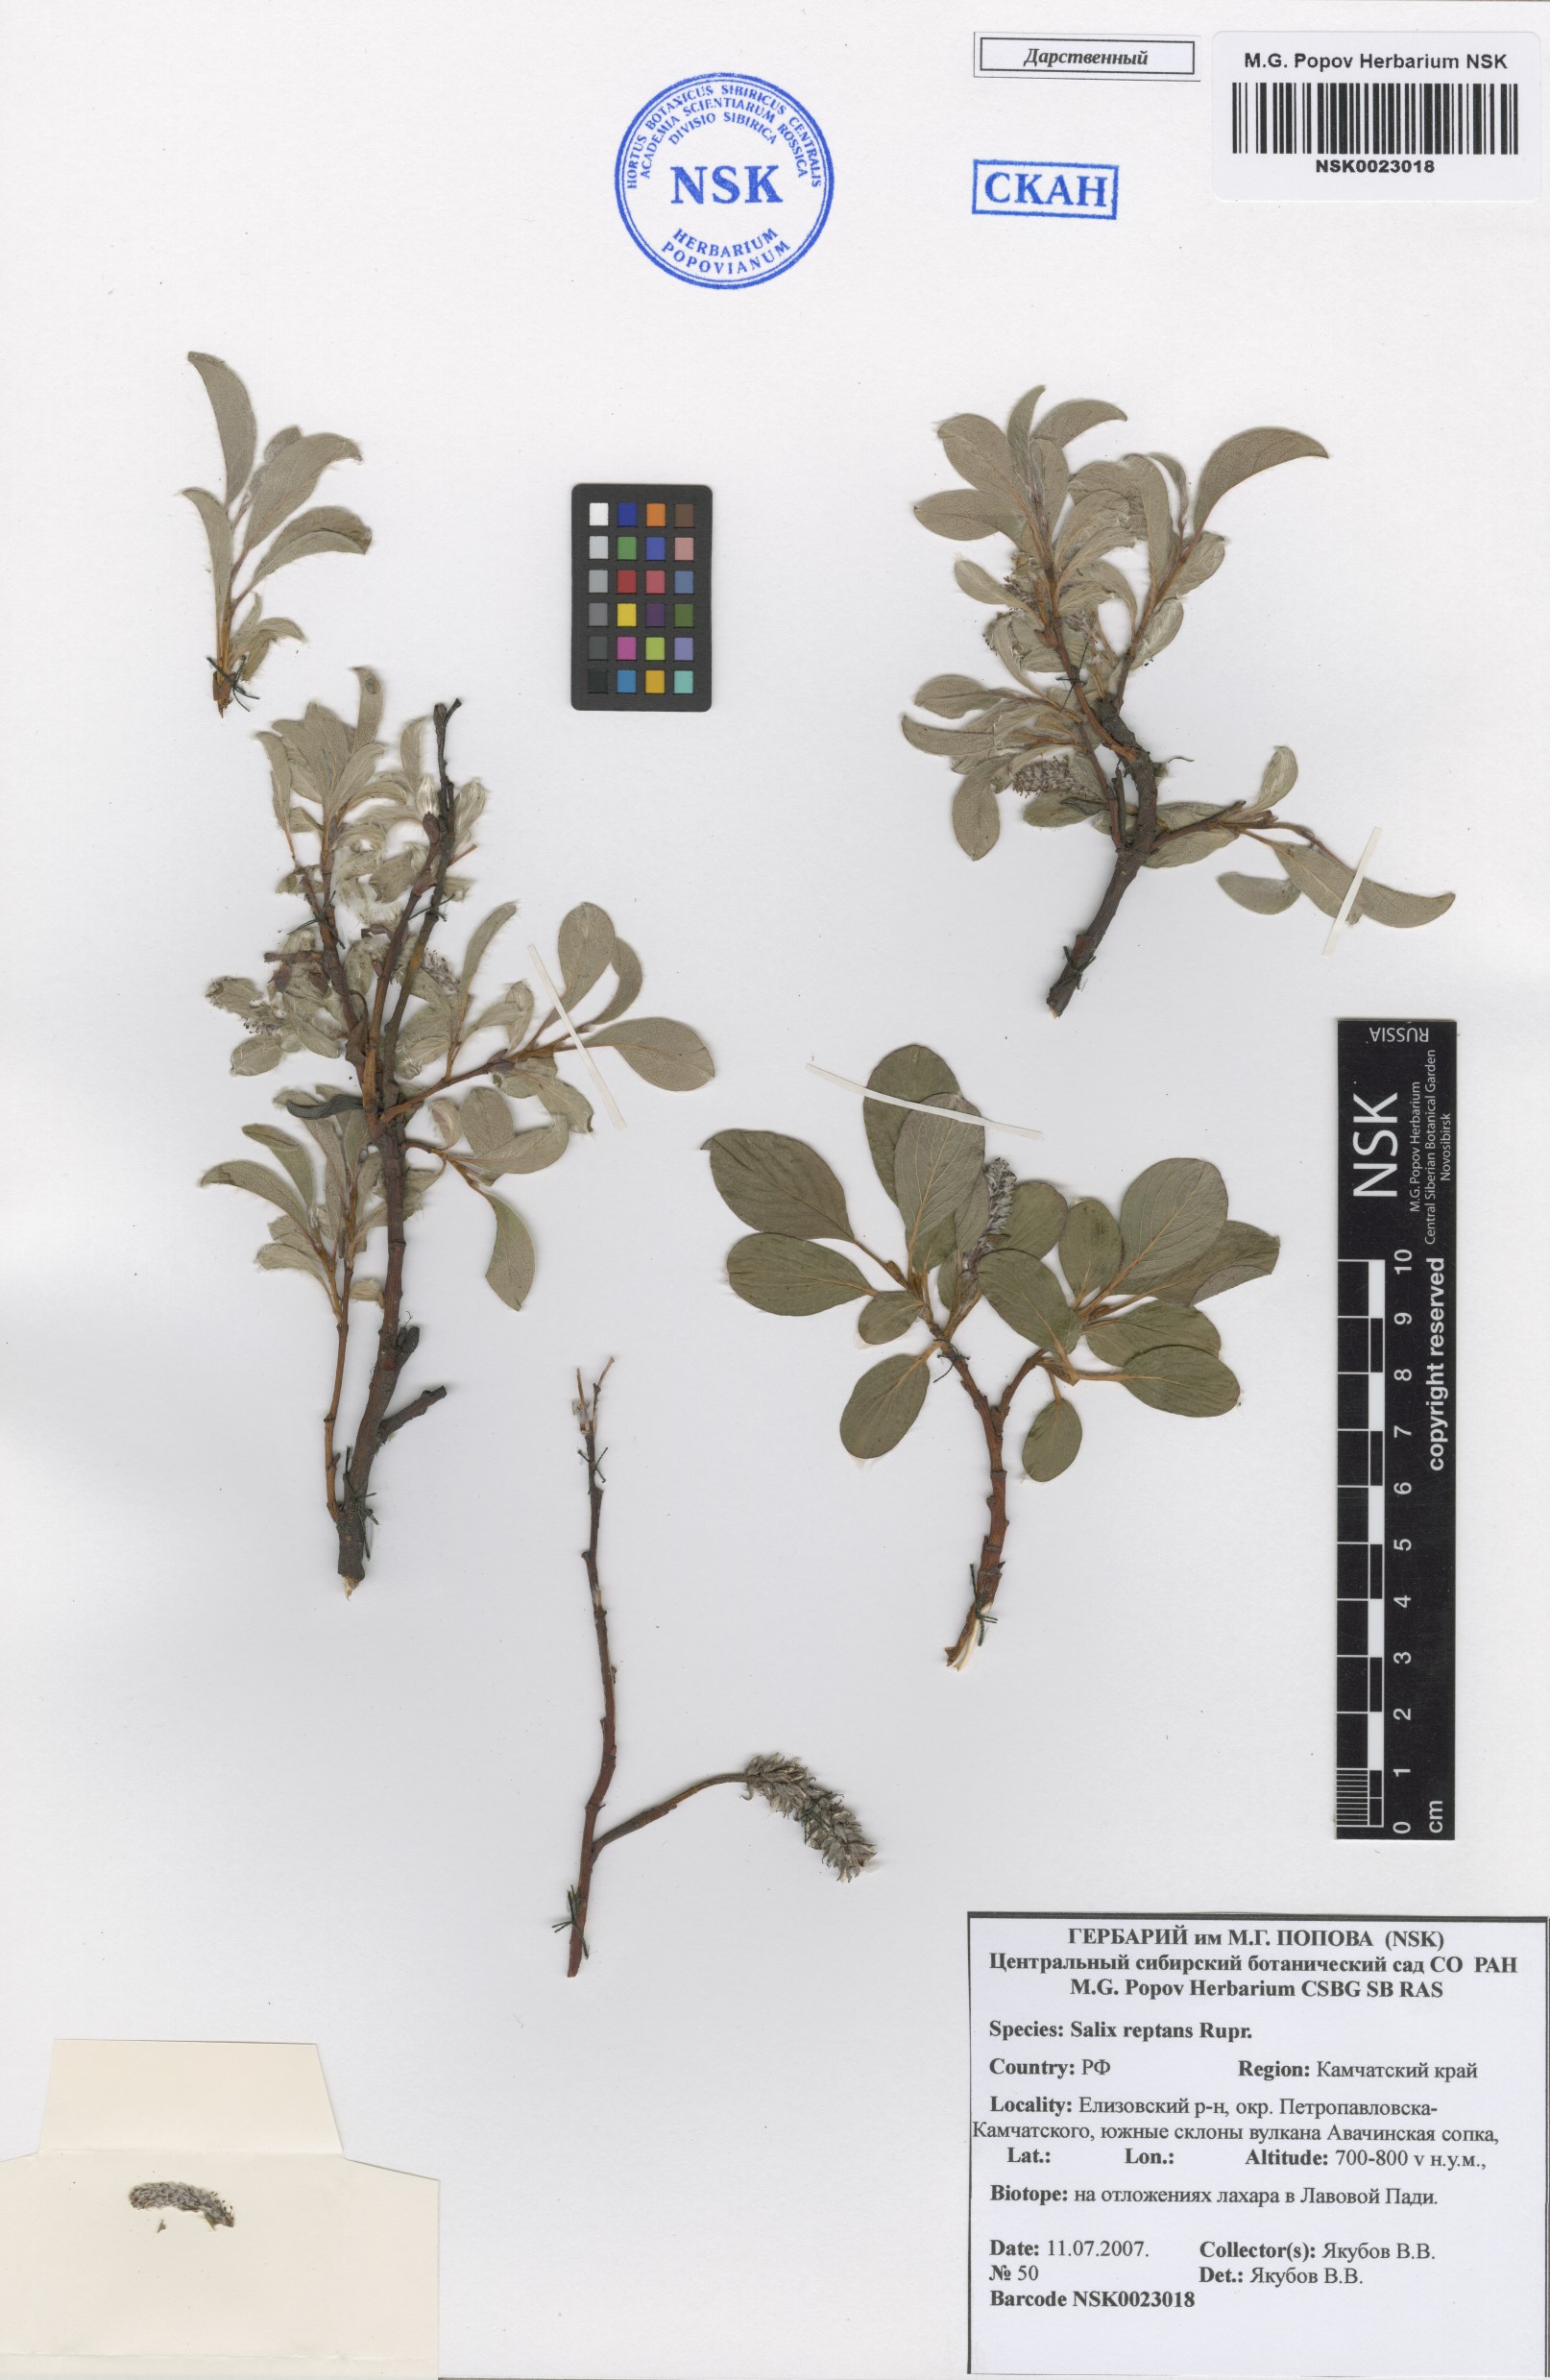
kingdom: Plantae
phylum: Tracheophyta
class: Magnoliopsida
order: Malpighiales
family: Salicaceae
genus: Salix
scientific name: Salix reptans
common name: Arctic creeping willow
